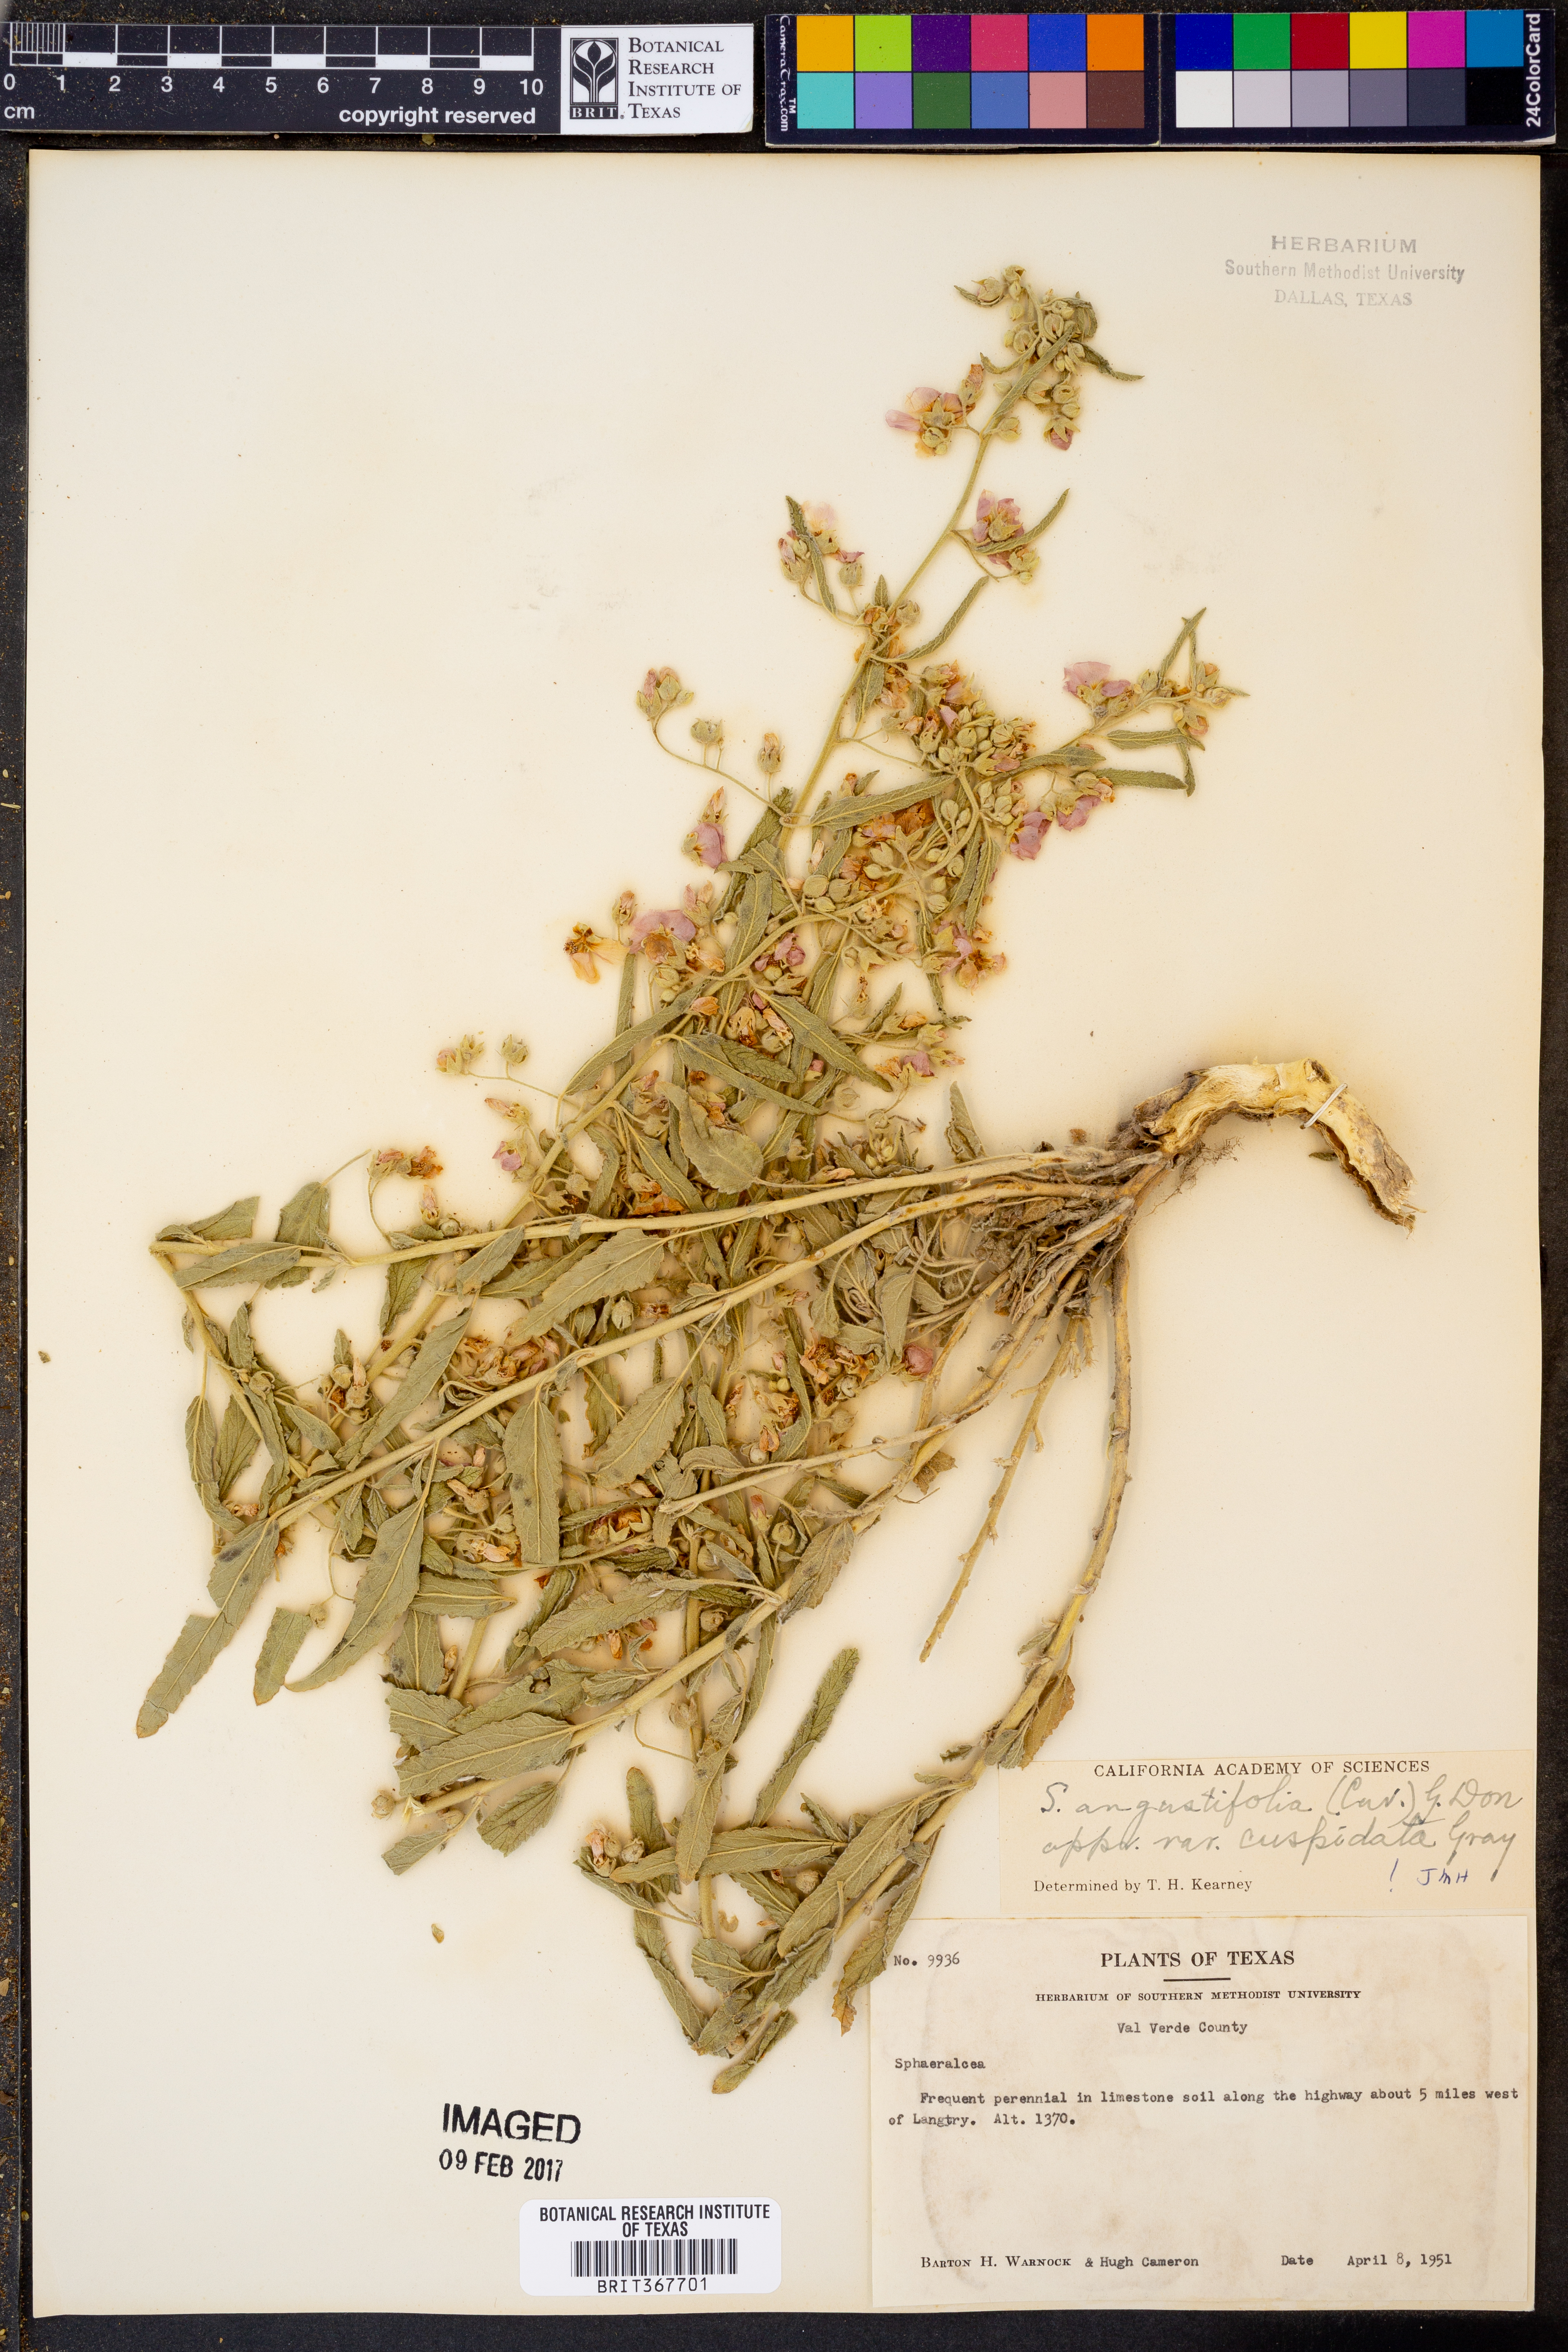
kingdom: Plantae
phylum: Tracheophyta
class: Magnoliopsida
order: Malvales
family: Malvaceae
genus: Sphaeralcea
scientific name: Sphaeralcea angustifolia
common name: Copper globe-mallow
